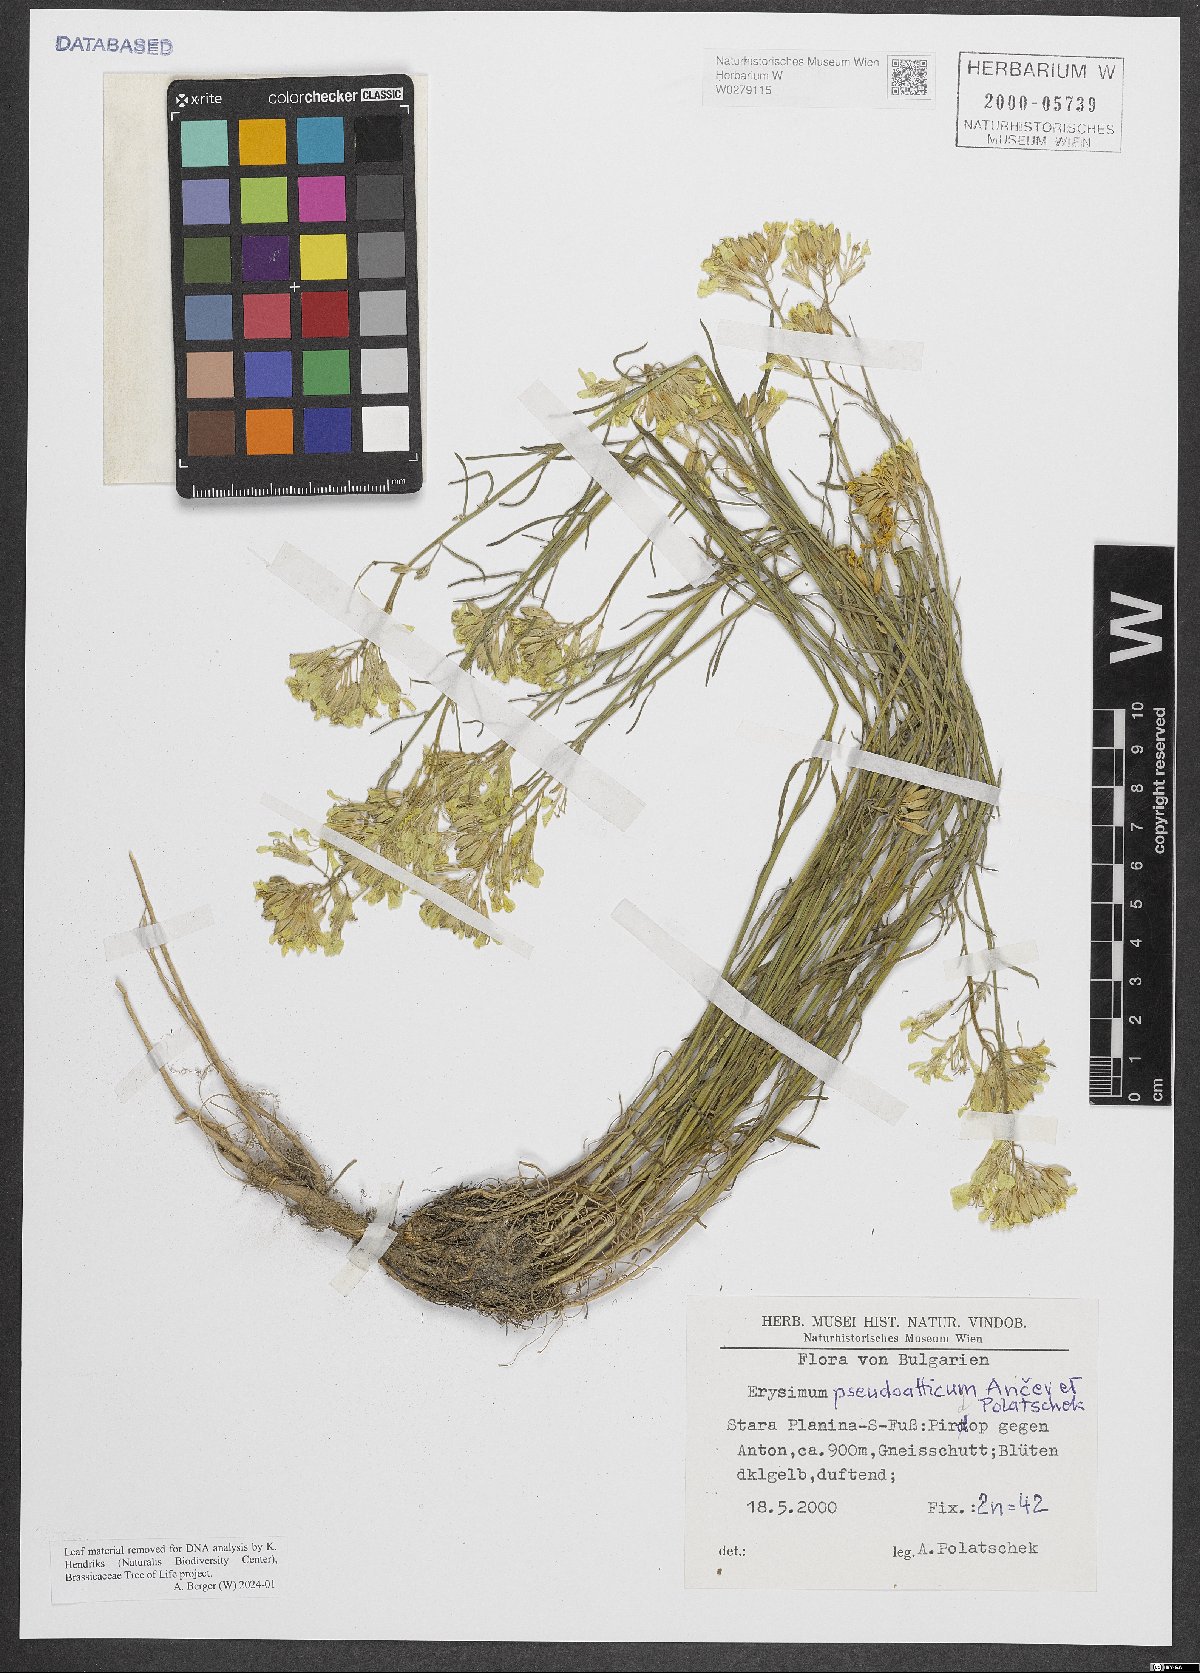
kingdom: Plantae
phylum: Tracheophyta
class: Magnoliopsida
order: Brassicales
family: Brassicaceae
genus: Erysimum
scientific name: Erysimum pseudoatticum
